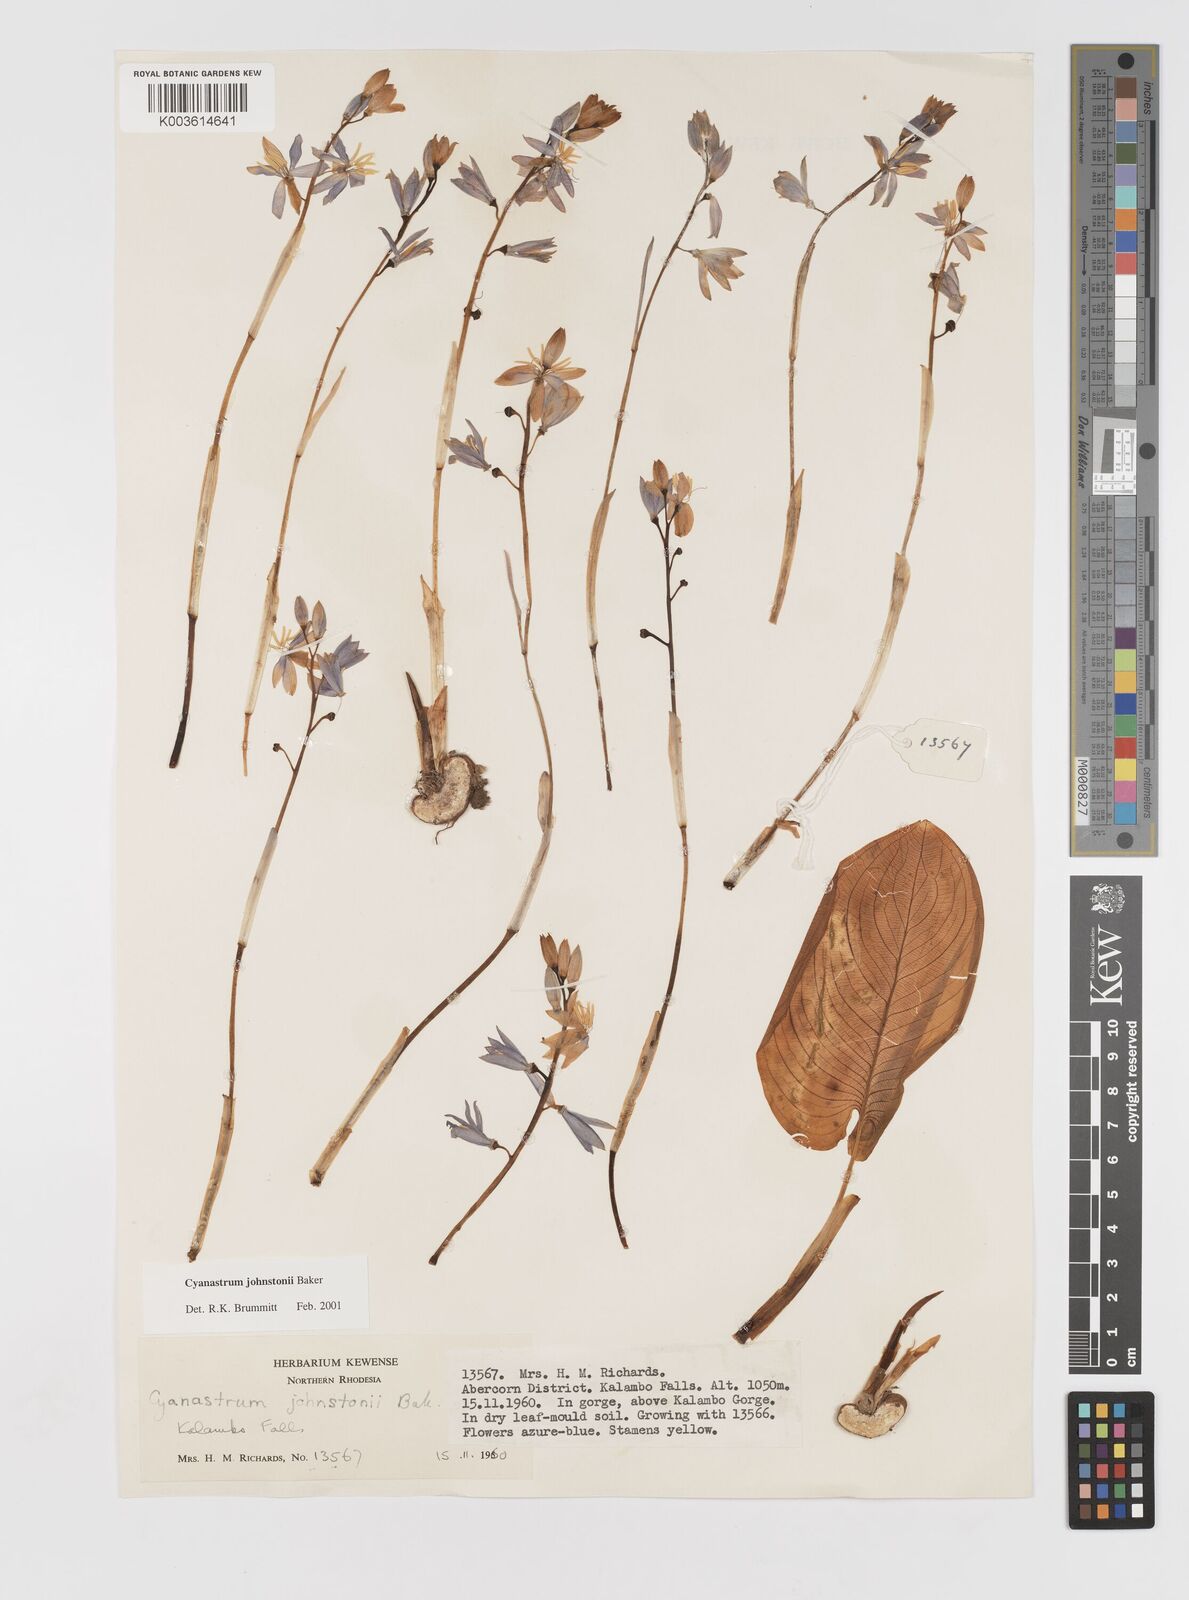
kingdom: Plantae
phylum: Tracheophyta
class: Liliopsida
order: Asparagales
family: Tecophilaeaceae
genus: Cyanastrum
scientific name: Cyanastrum johnstonii
